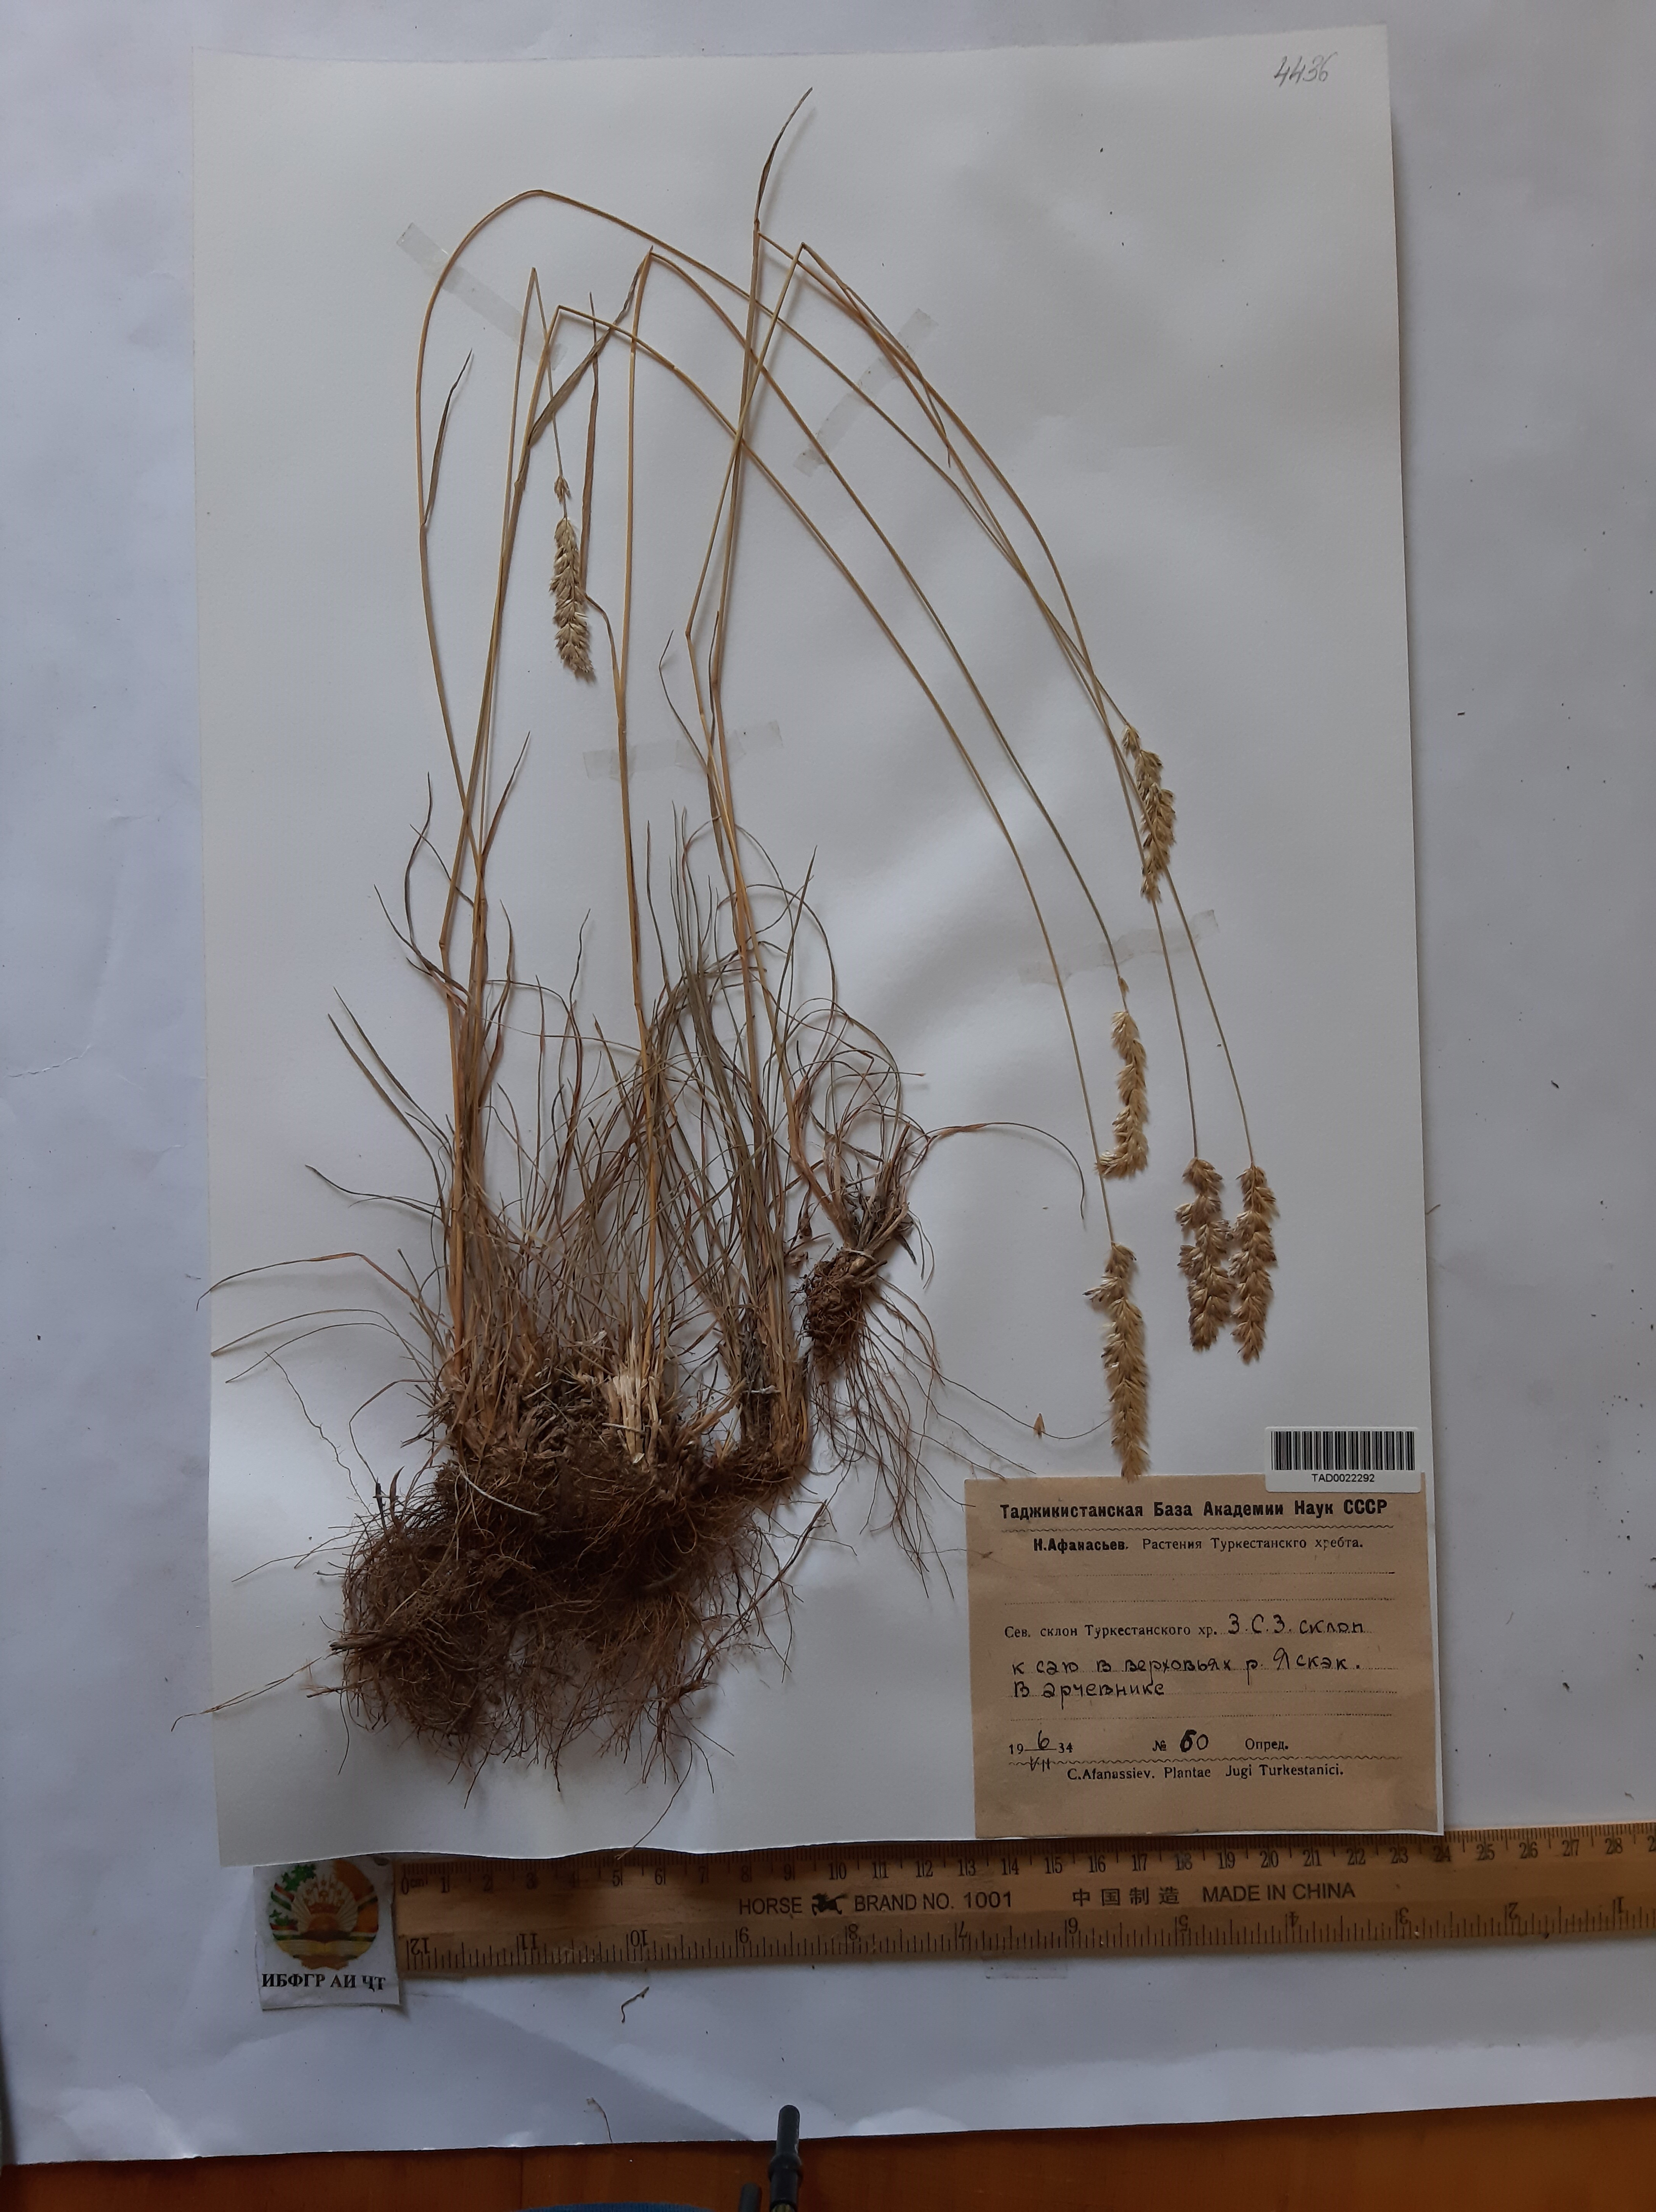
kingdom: Plantae
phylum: Tracheophyta
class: Liliopsida
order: Poales
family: Poaceae
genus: Koeleria
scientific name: Koeleria macrantha
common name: Crested hair-grass
